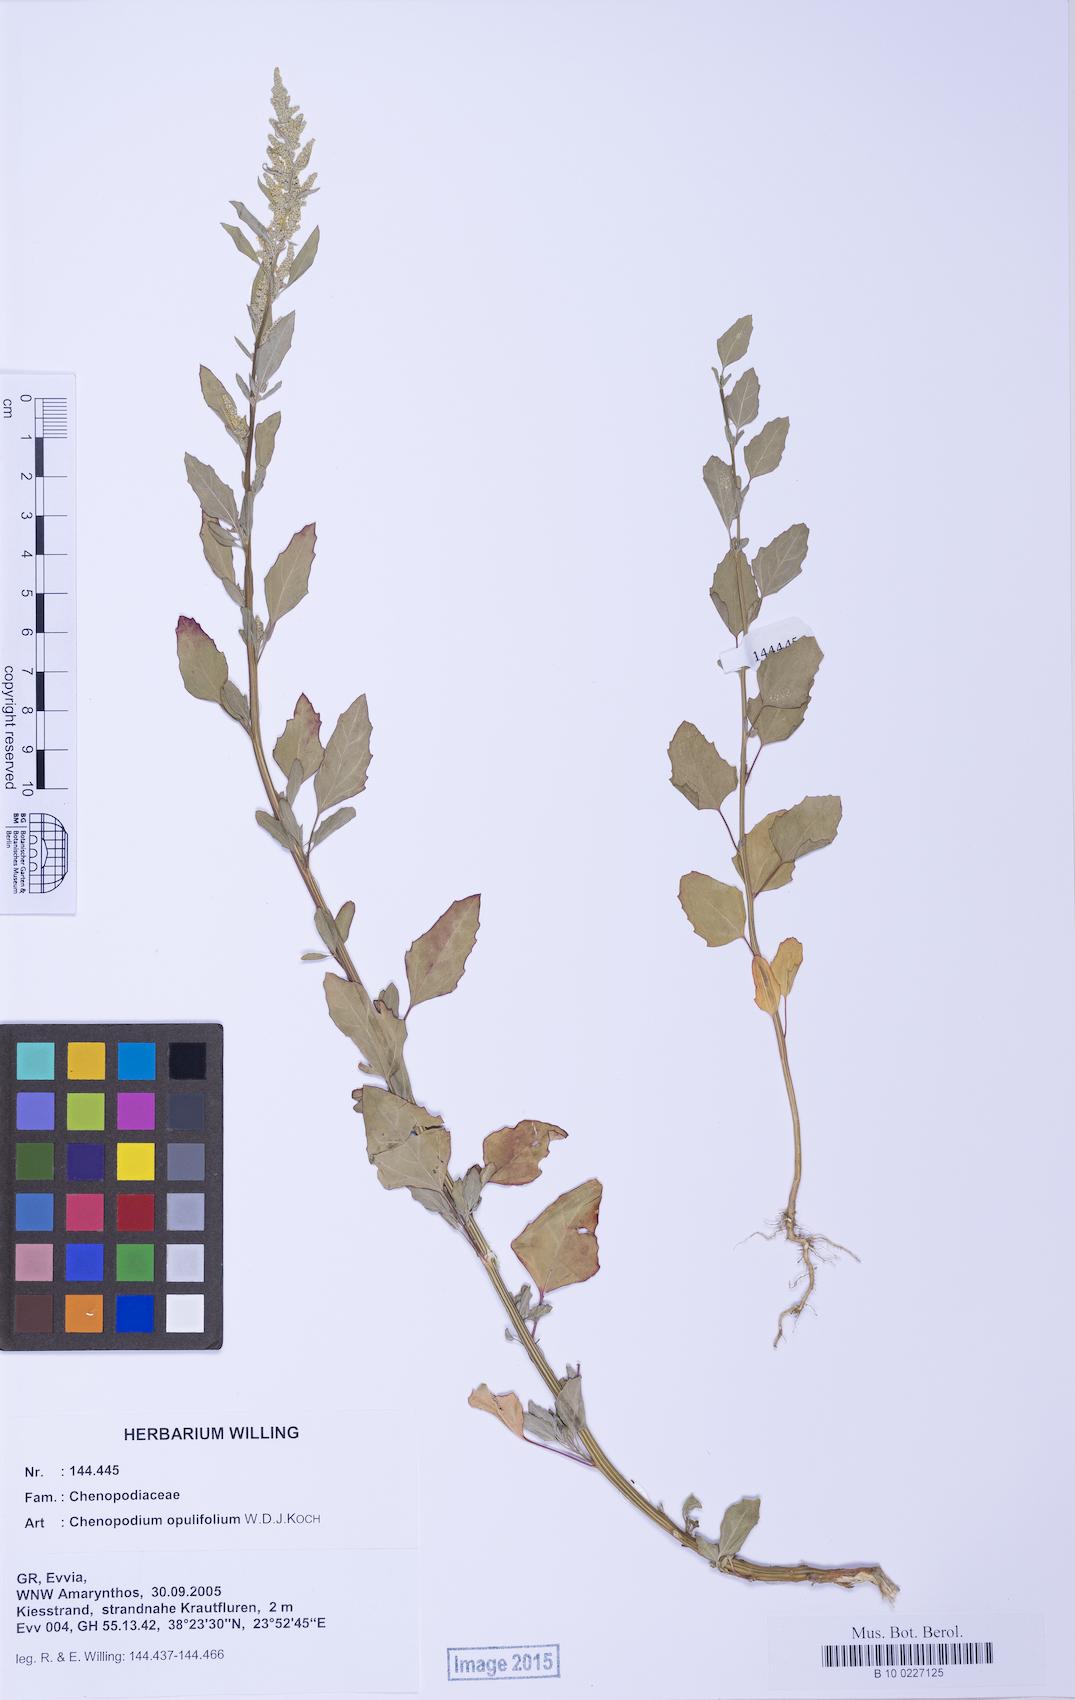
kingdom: Plantae
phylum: Tracheophyta
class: Magnoliopsida
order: Caryophyllales
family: Amaranthaceae
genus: Chenopodium
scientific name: Chenopodium opulifolium
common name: Grey goosefoot
